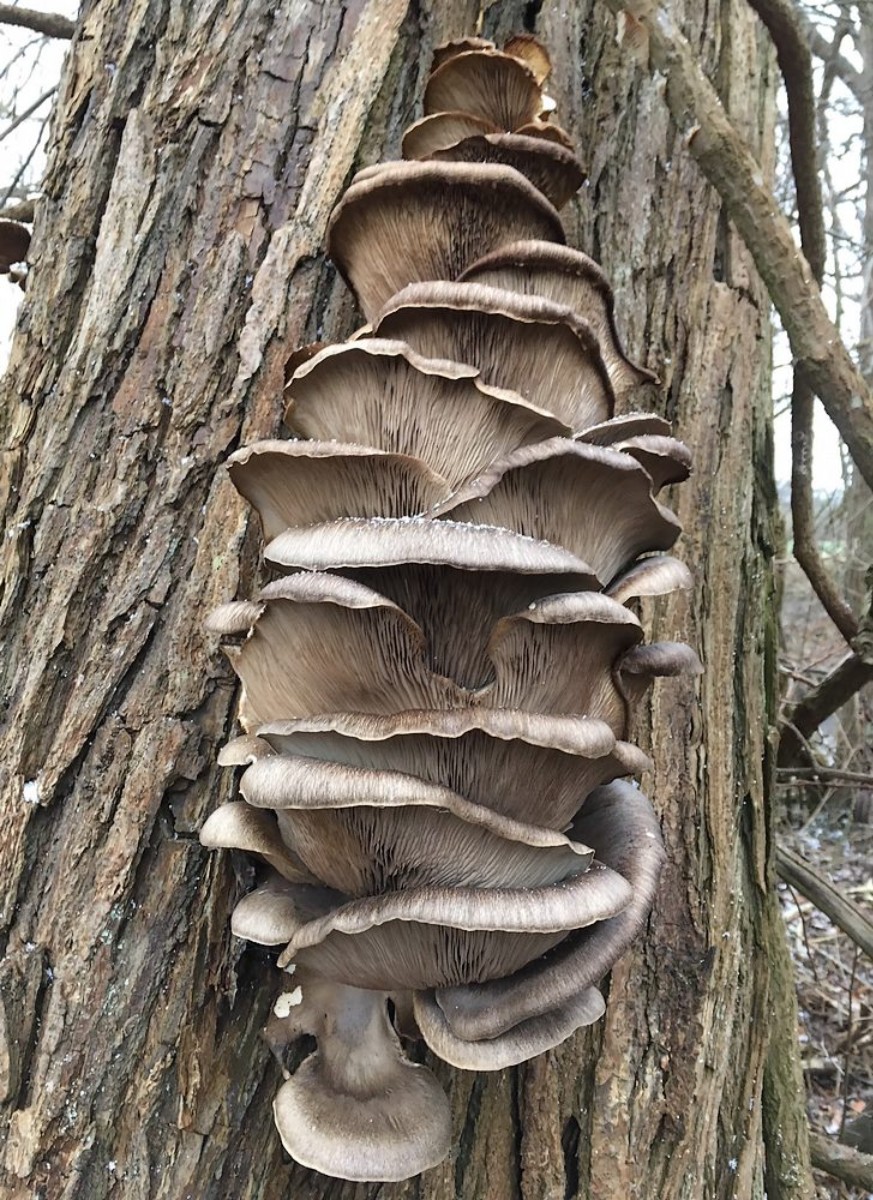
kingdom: Fungi
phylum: Basidiomycota
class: Agaricomycetes
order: Agaricales
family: Pleurotaceae
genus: Pleurotus
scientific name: Pleurotus ostreatus
